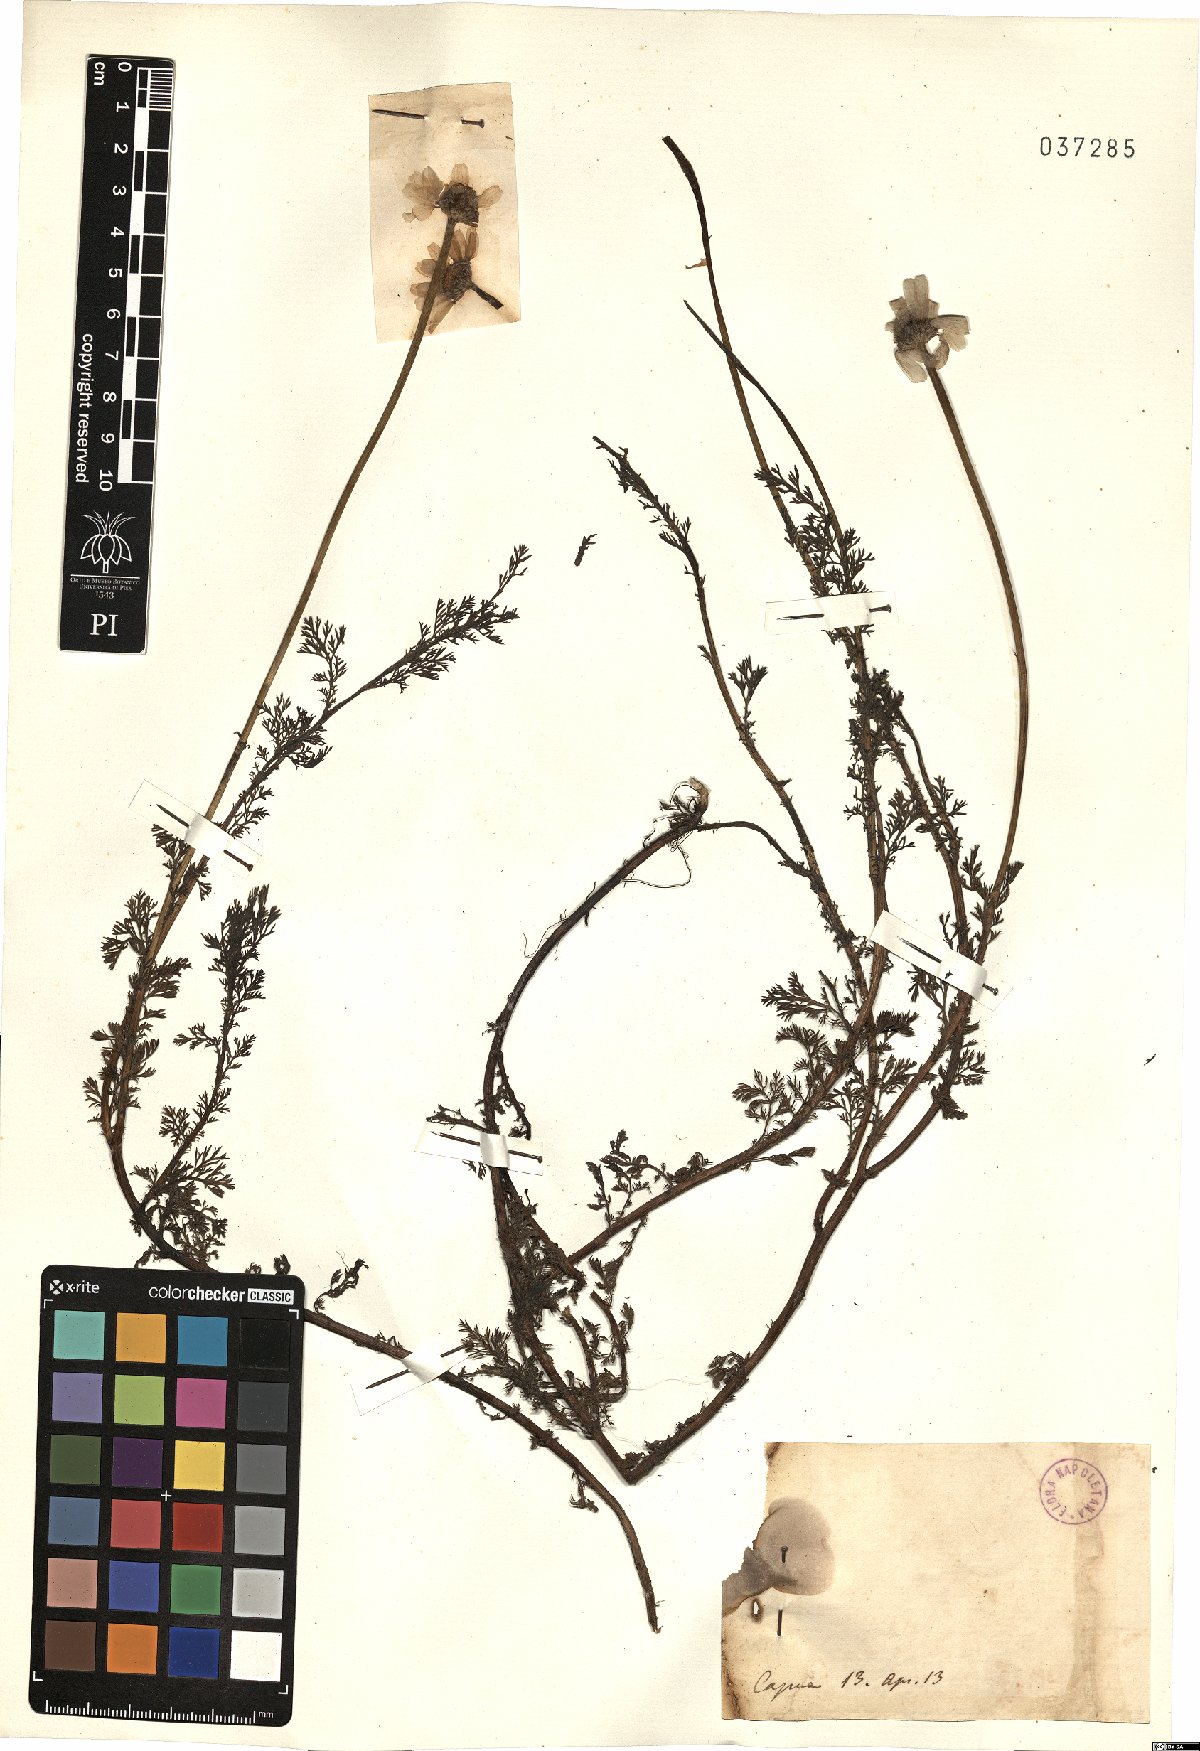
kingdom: Plantae
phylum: Tracheophyta
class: Magnoliopsida
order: Asterales
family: Asteraceae
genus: Anthemis
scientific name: Anthemis
